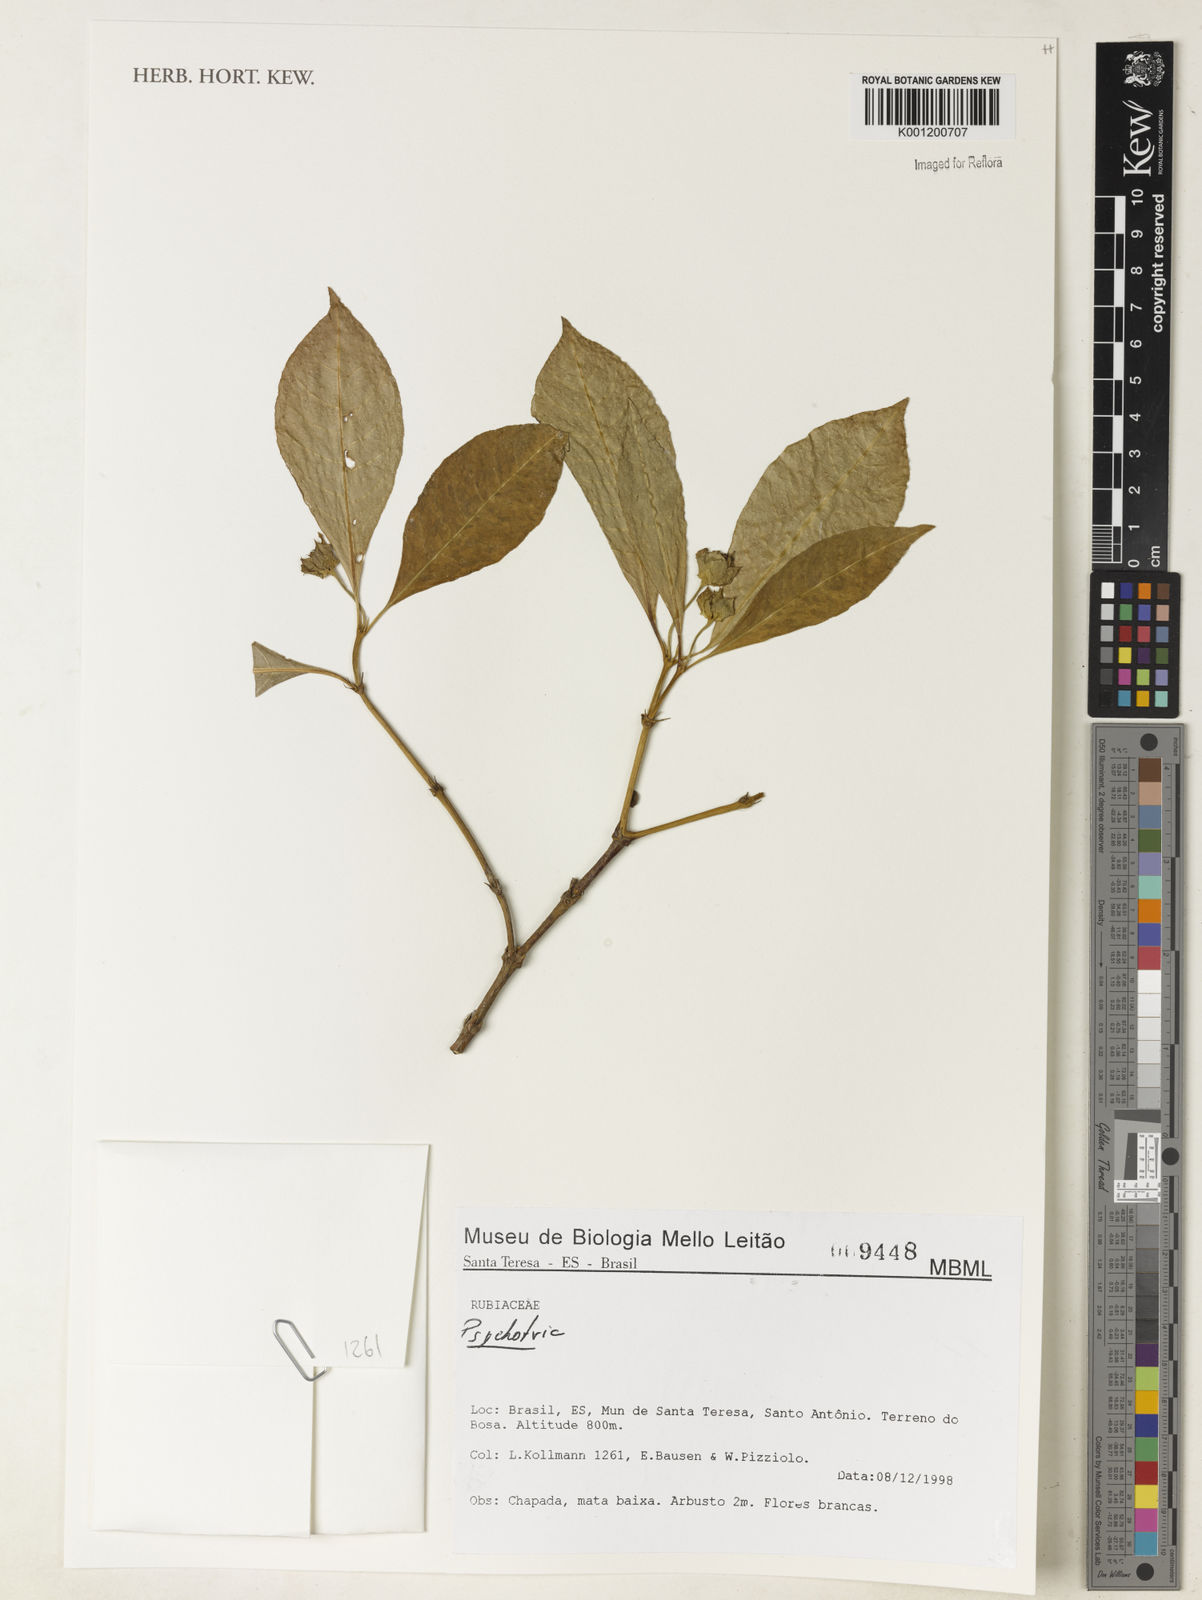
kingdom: Plantae
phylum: Tracheophyta
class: Magnoliopsida
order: Gentianales
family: Rubiaceae
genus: Psychotria
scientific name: Psychotria
